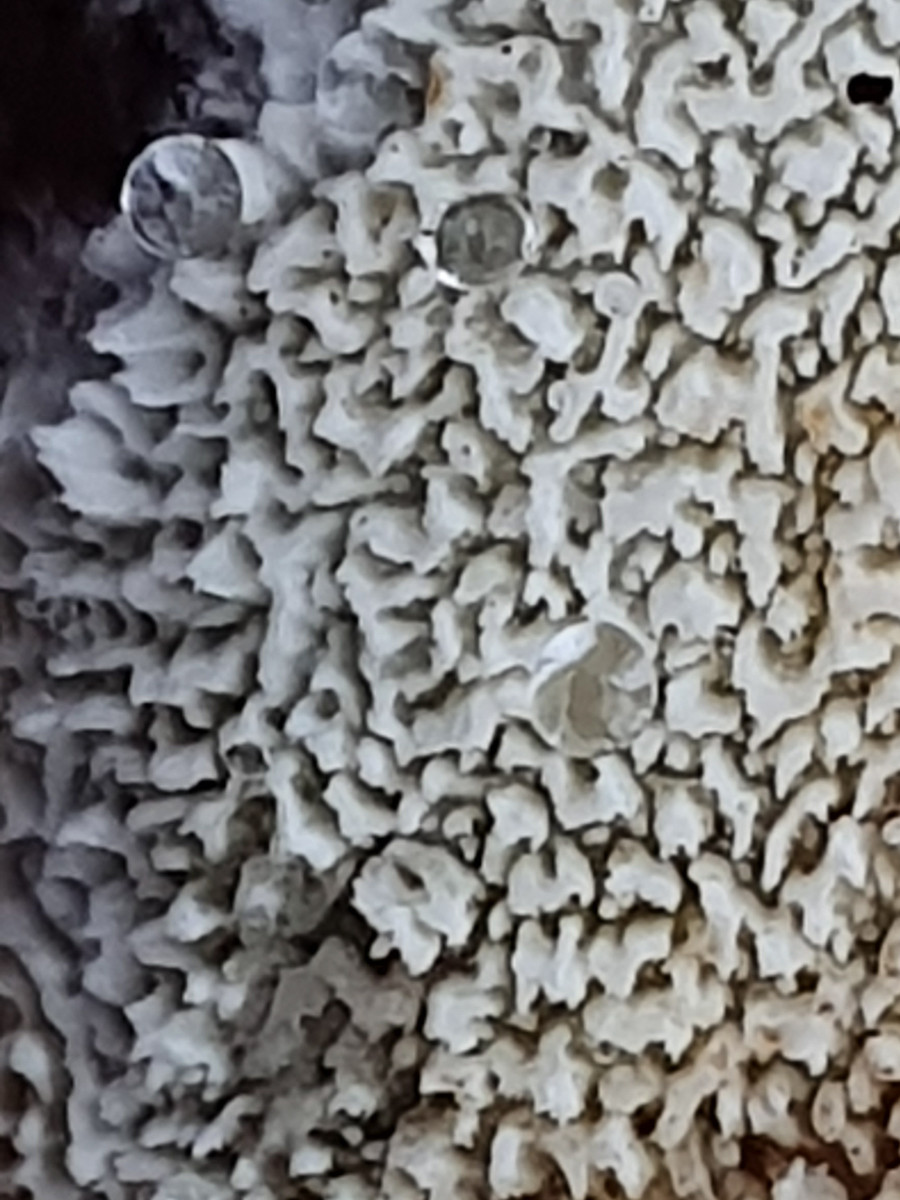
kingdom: Fungi
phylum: Basidiomycota
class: Agaricomycetes
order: Hymenochaetales
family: Schizoporaceae
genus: Schizopora
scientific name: Schizopora paradoxa
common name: hvid tandsvamp
